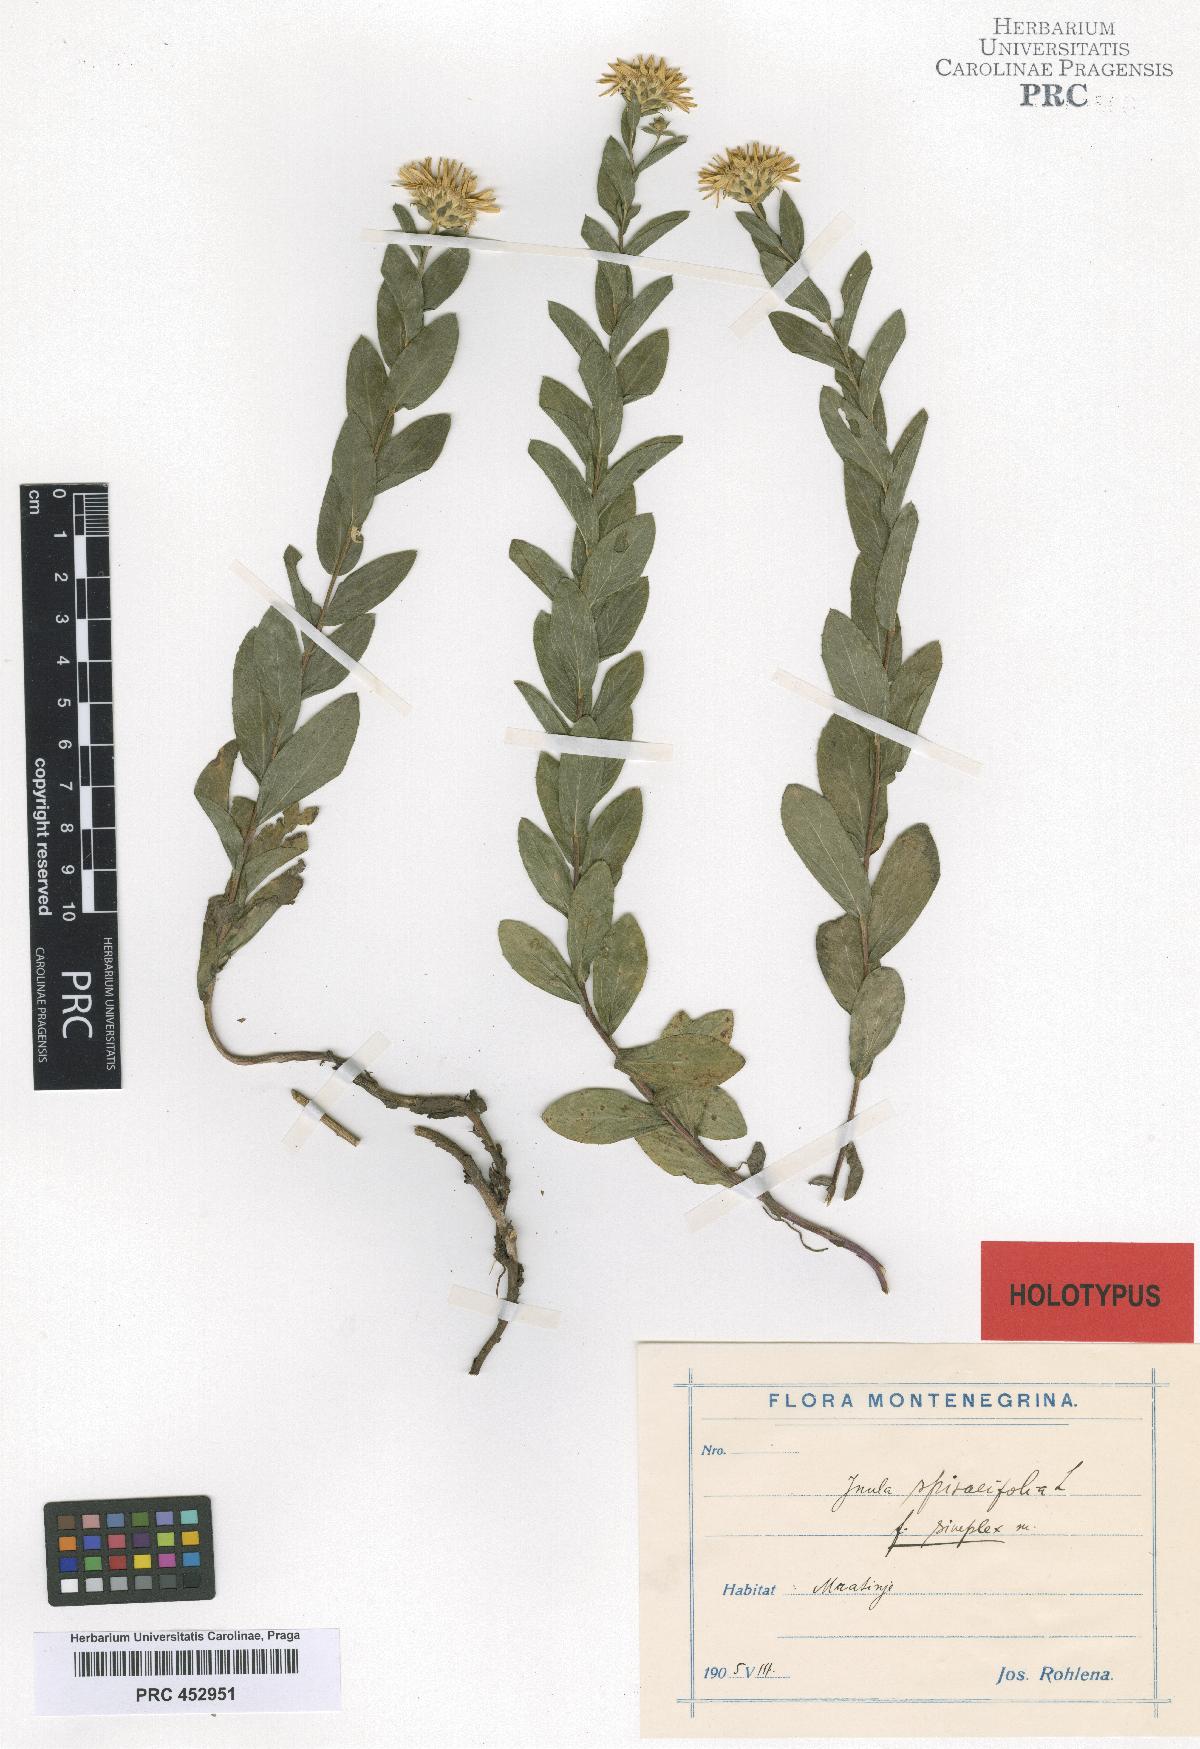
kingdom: Plantae
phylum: Tracheophyta
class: Magnoliopsida
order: Asterales
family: Asteraceae
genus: Inula
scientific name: Inula spiraeifolia
